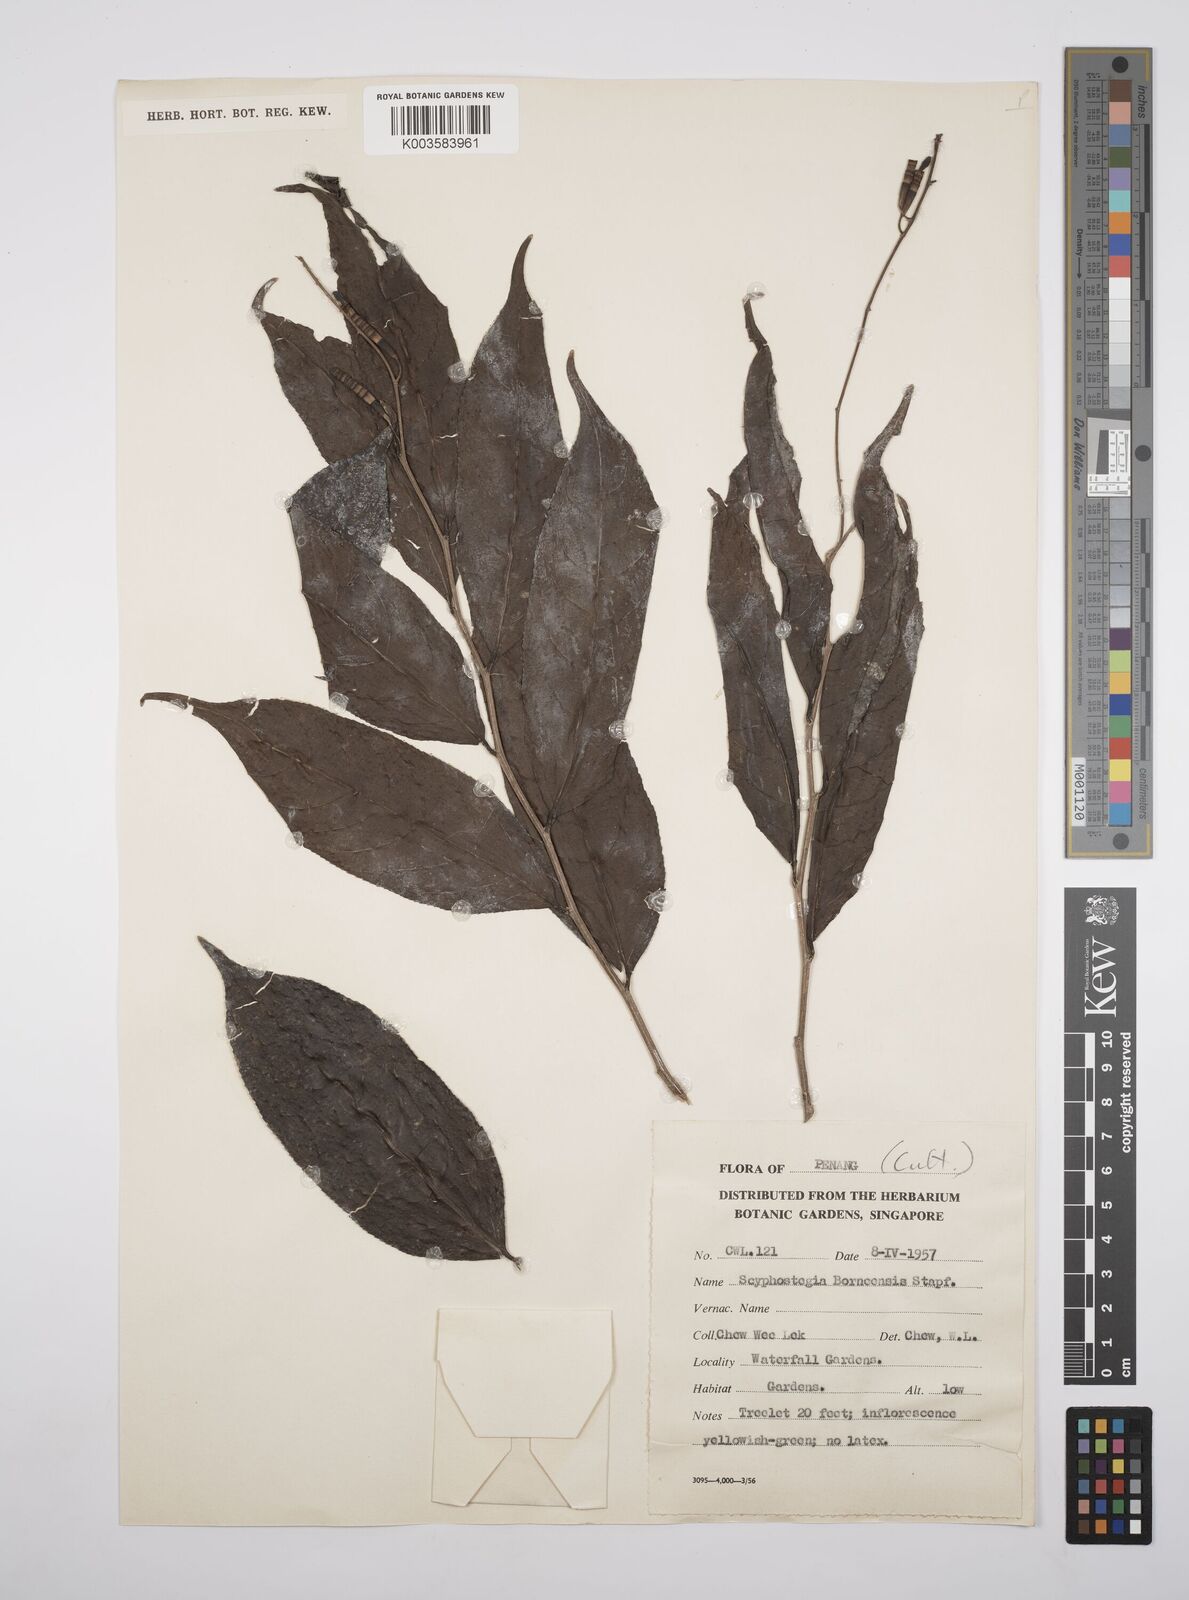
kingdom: Plantae
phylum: Tracheophyta
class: Magnoliopsida
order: Malpighiales
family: Salicaceae
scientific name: Salicaceae
